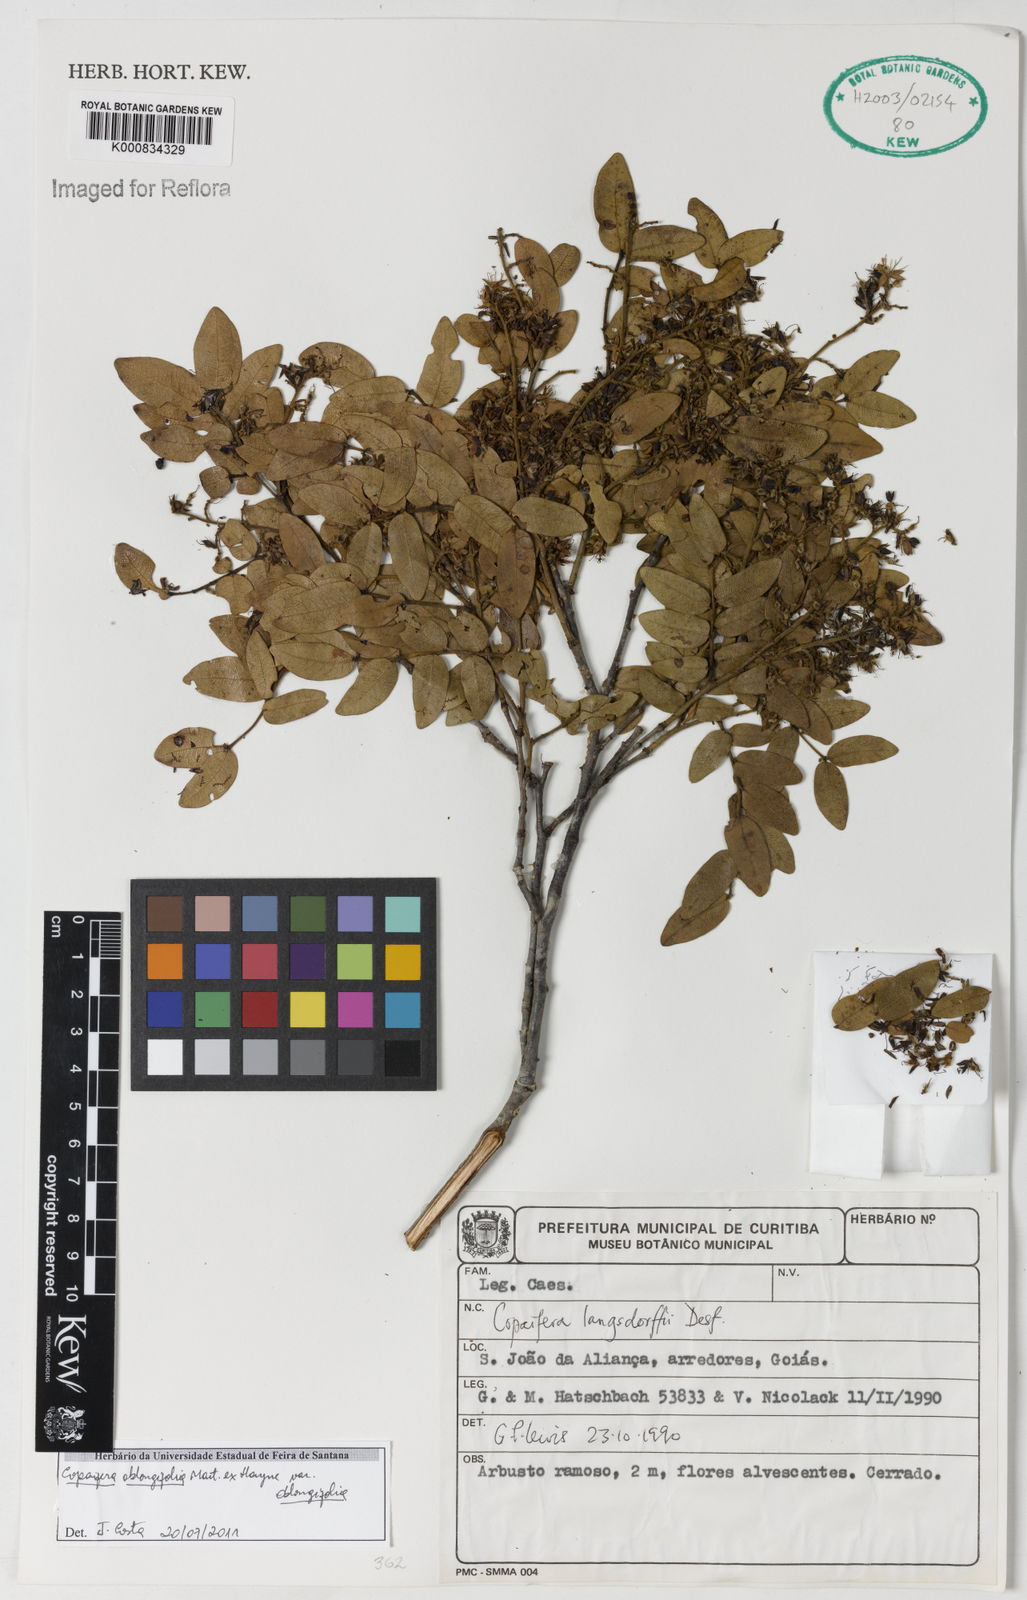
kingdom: Plantae
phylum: Tracheophyta
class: Magnoliopsida
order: Fabales
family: Fabaceae
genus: Copaifera
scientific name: Copaifera oblongifolia
